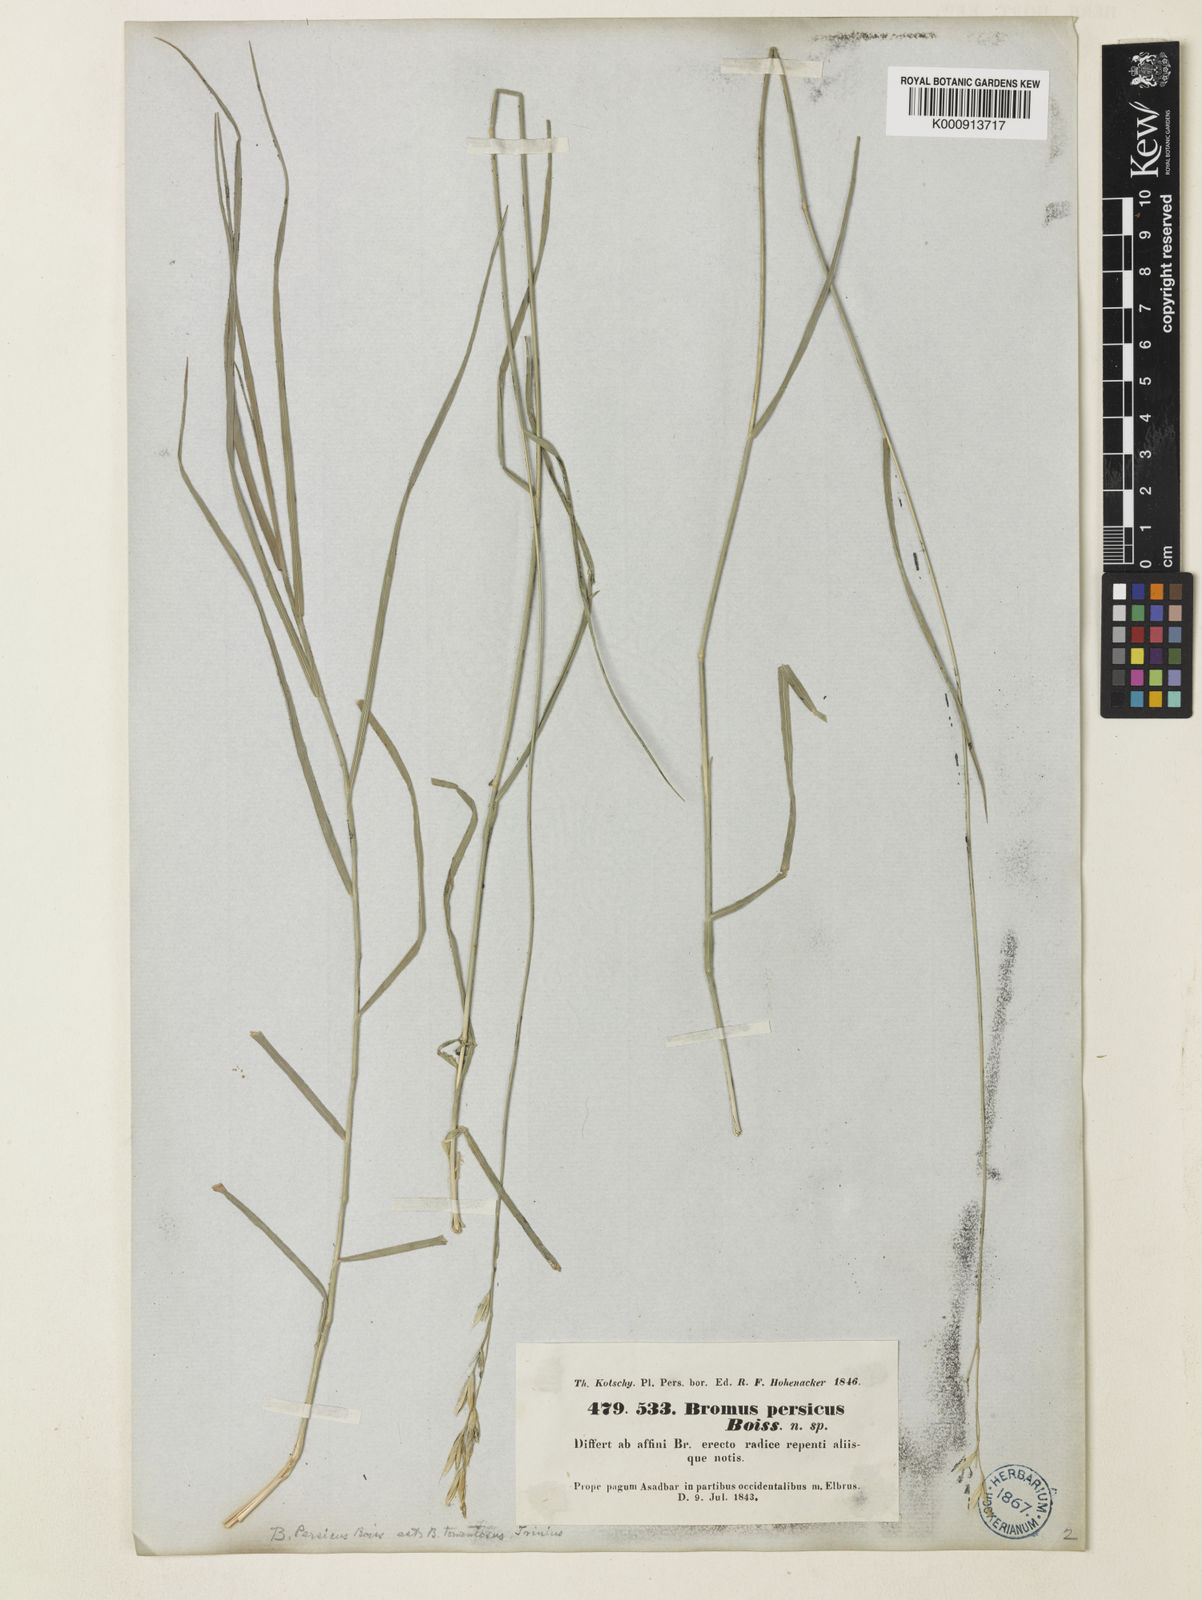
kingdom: Plantae
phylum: Tracheophyta
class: Liliopsida
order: Poales
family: Poaceae
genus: Bromus
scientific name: Bromus tomentosus
